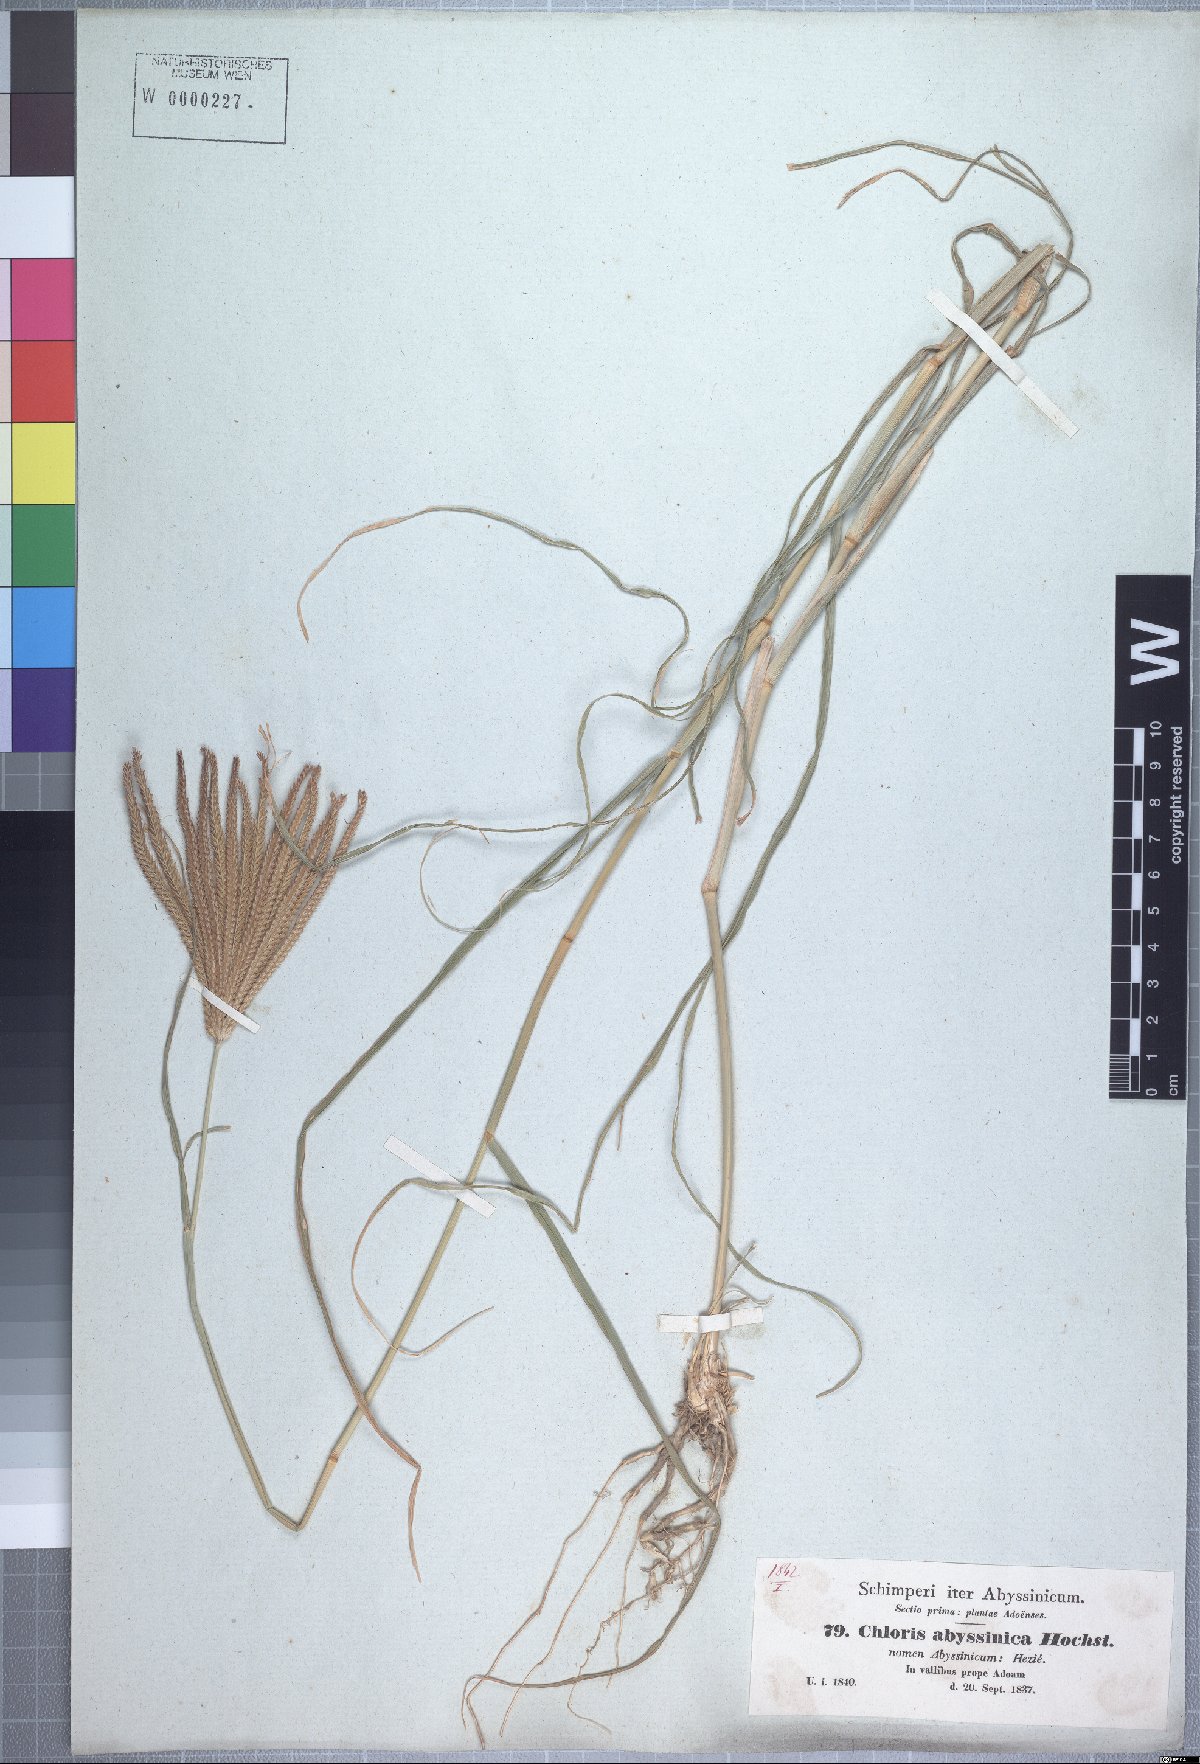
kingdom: Plantae
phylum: Tracheophyta
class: Liliopsida
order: Poales
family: Poaceae
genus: Chloris
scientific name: Chloris gayana
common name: Rhodes grass
